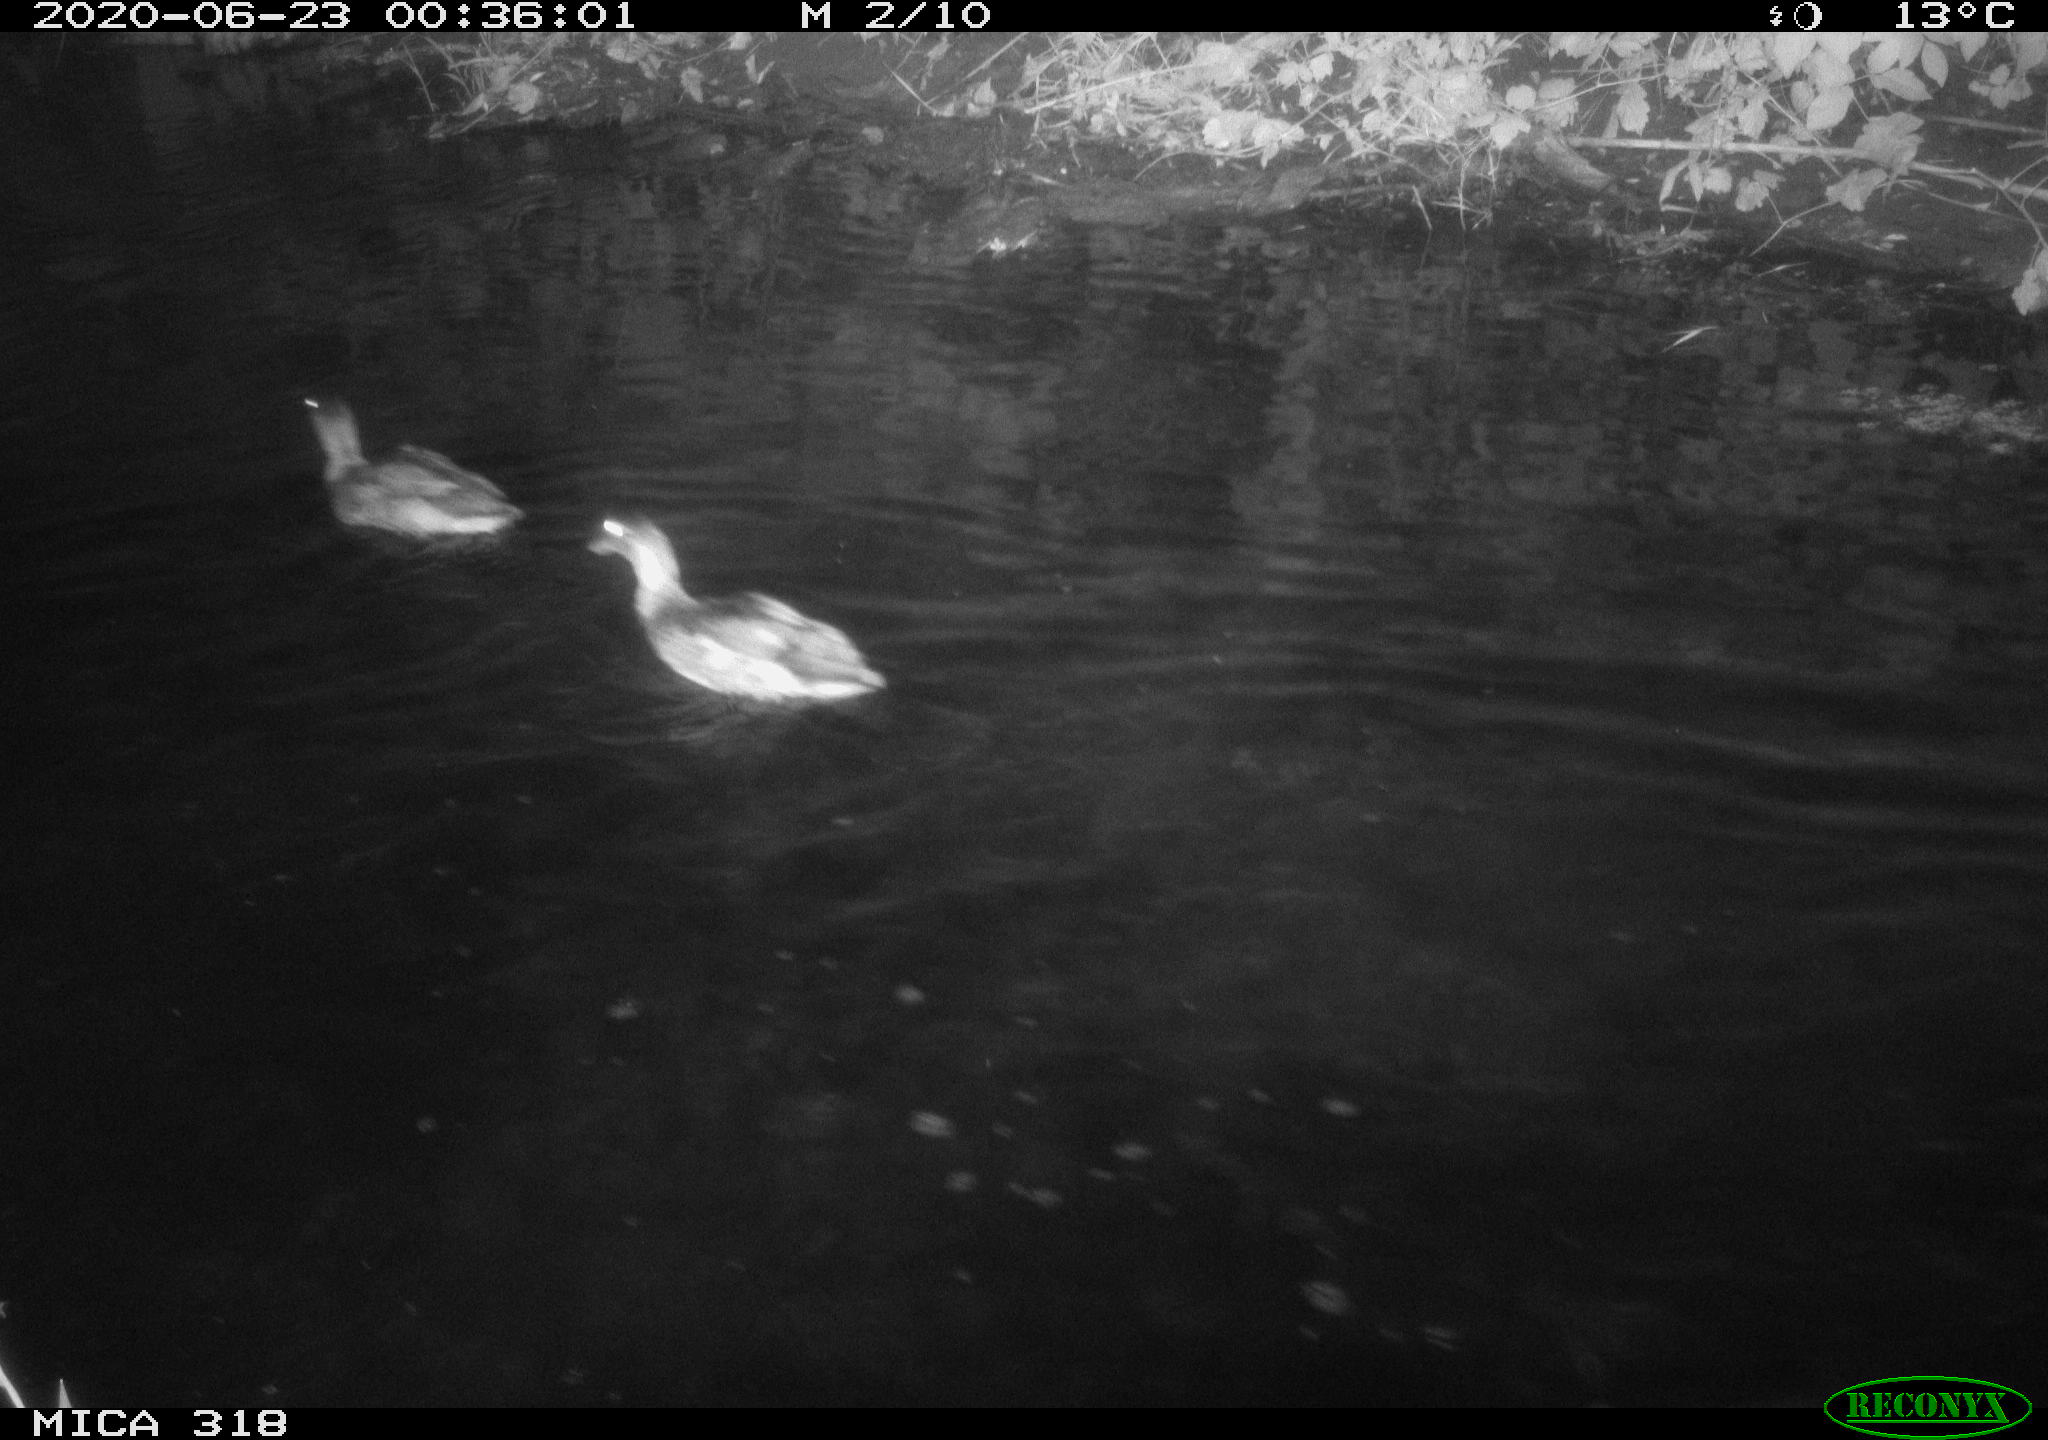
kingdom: Animalia
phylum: Chordata
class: Aves
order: Anseriformes
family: Anatidae
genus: Anas
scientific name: Anas platyrhynchos
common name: Mallard
